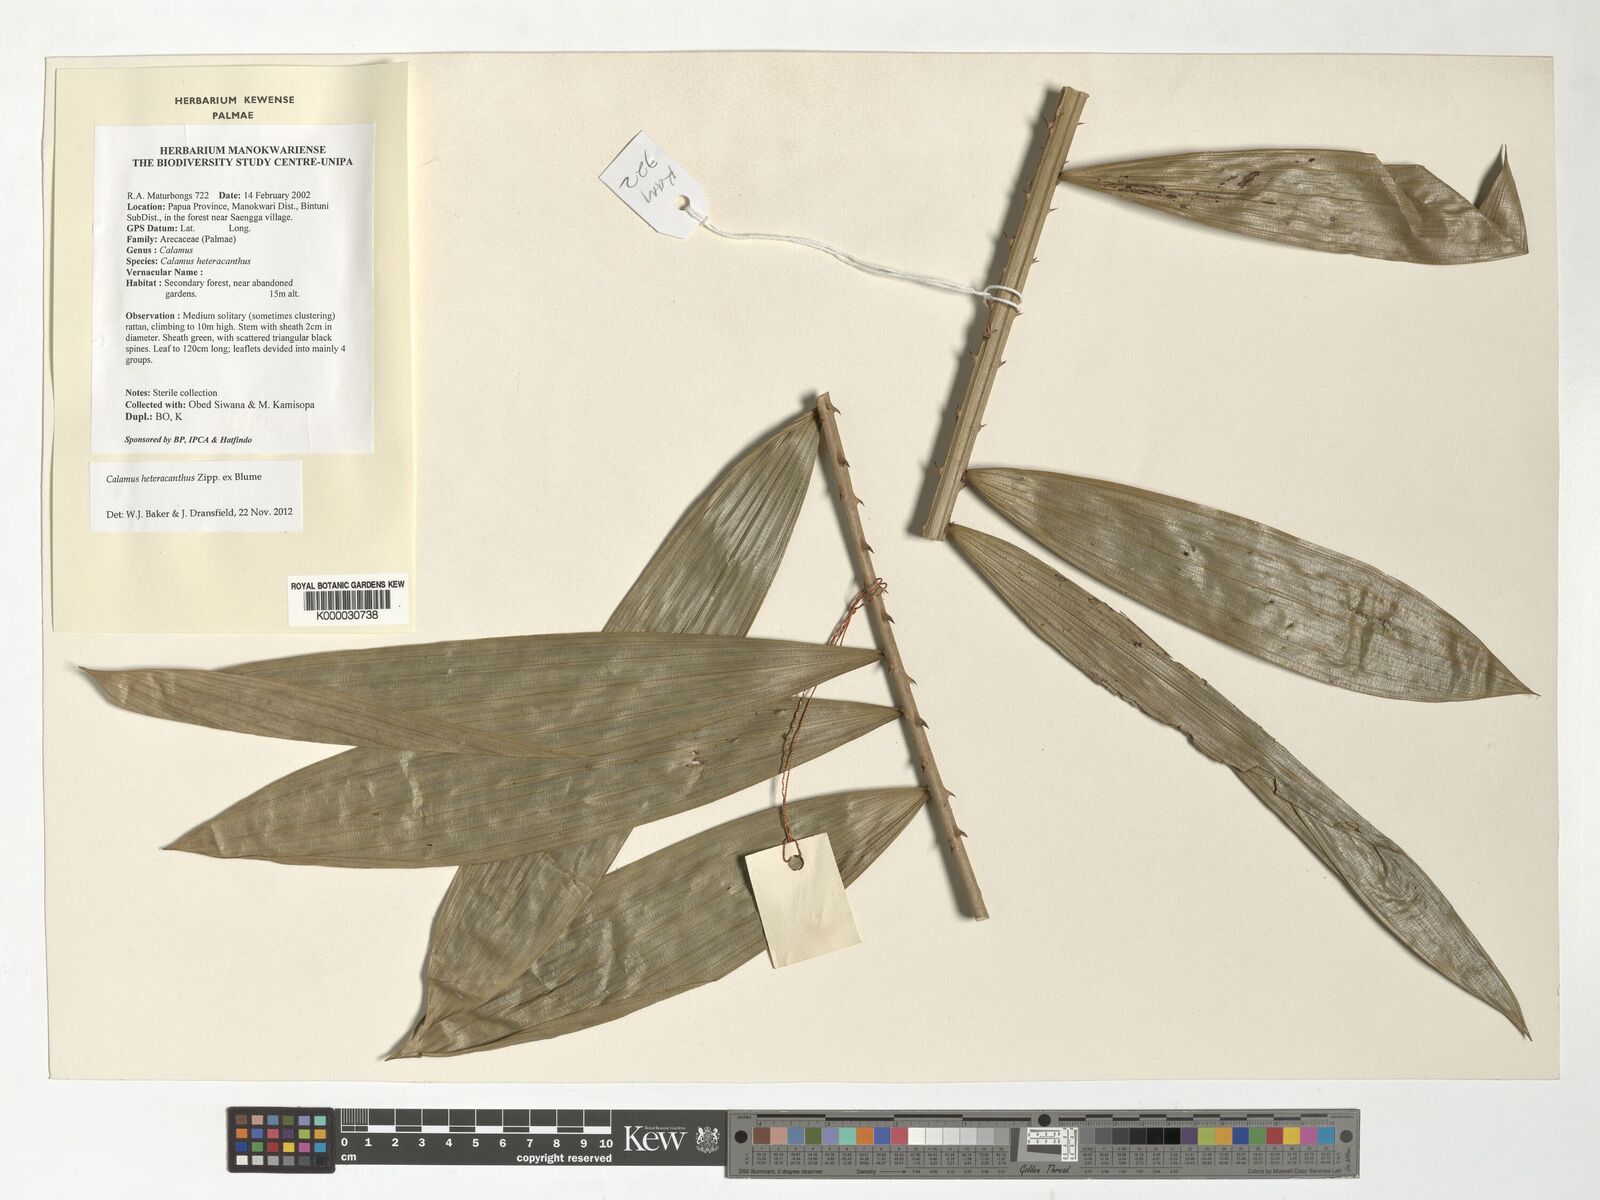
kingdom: Plantae
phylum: Tracheophyta
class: Liliopsida
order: Arecales
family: Arecaceae
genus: Calamus
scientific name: Calamus heteracanthus
